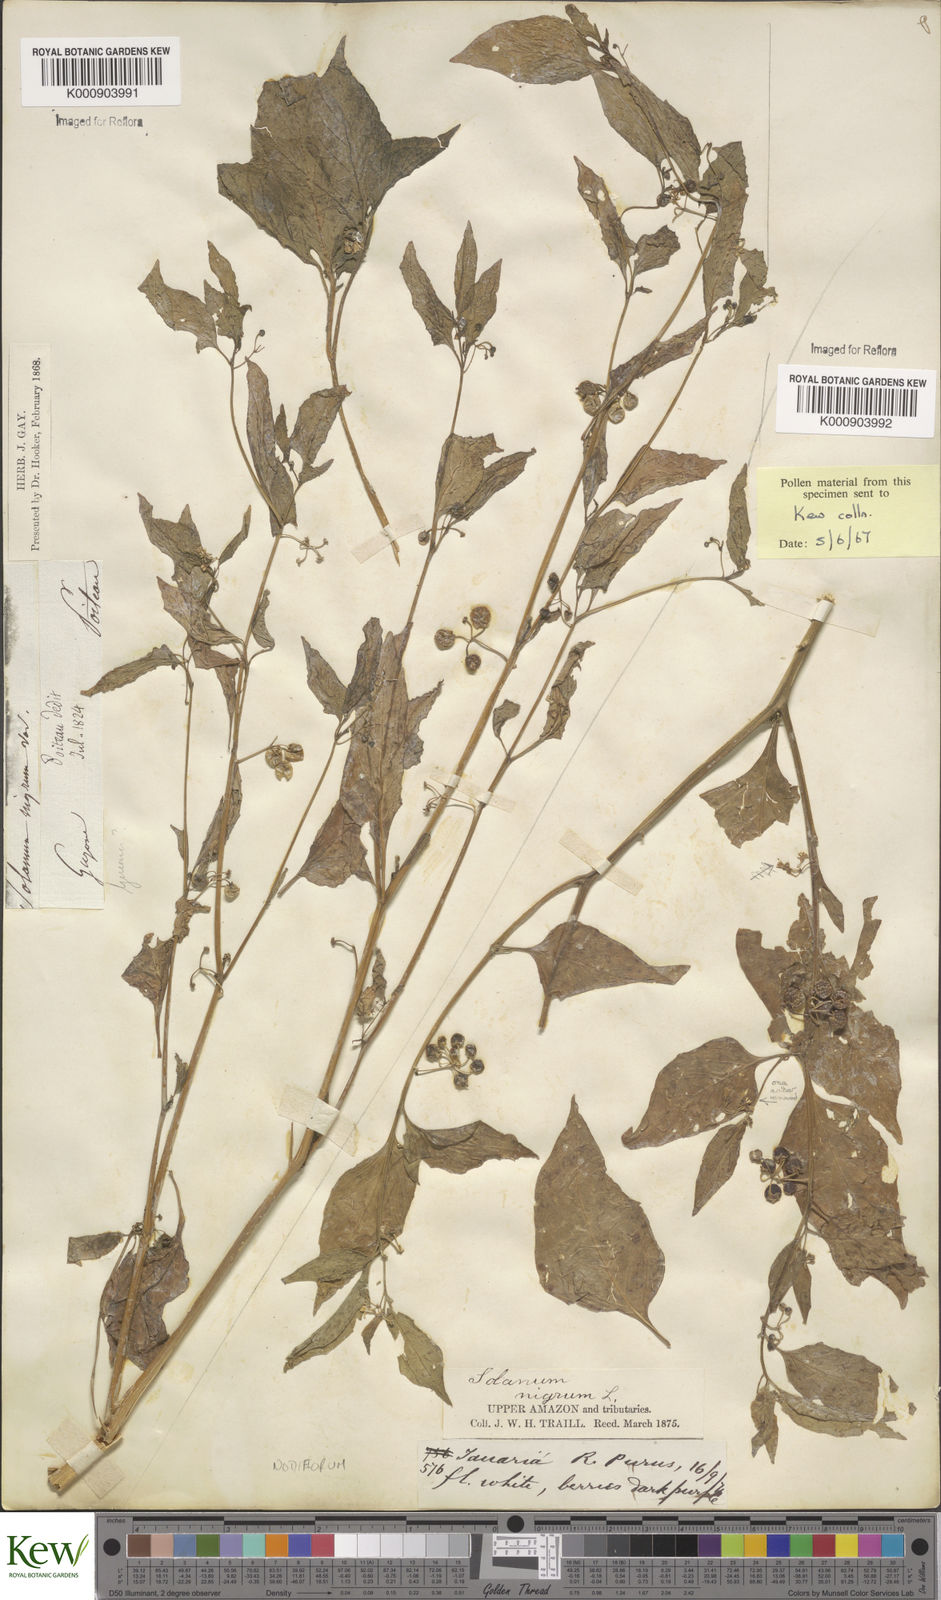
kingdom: Plantae
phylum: Tracheophyta
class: Magnoliopsida
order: Solanales
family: Solanaceae
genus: Solanum
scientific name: Solanum americanum
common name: American black nightshade
